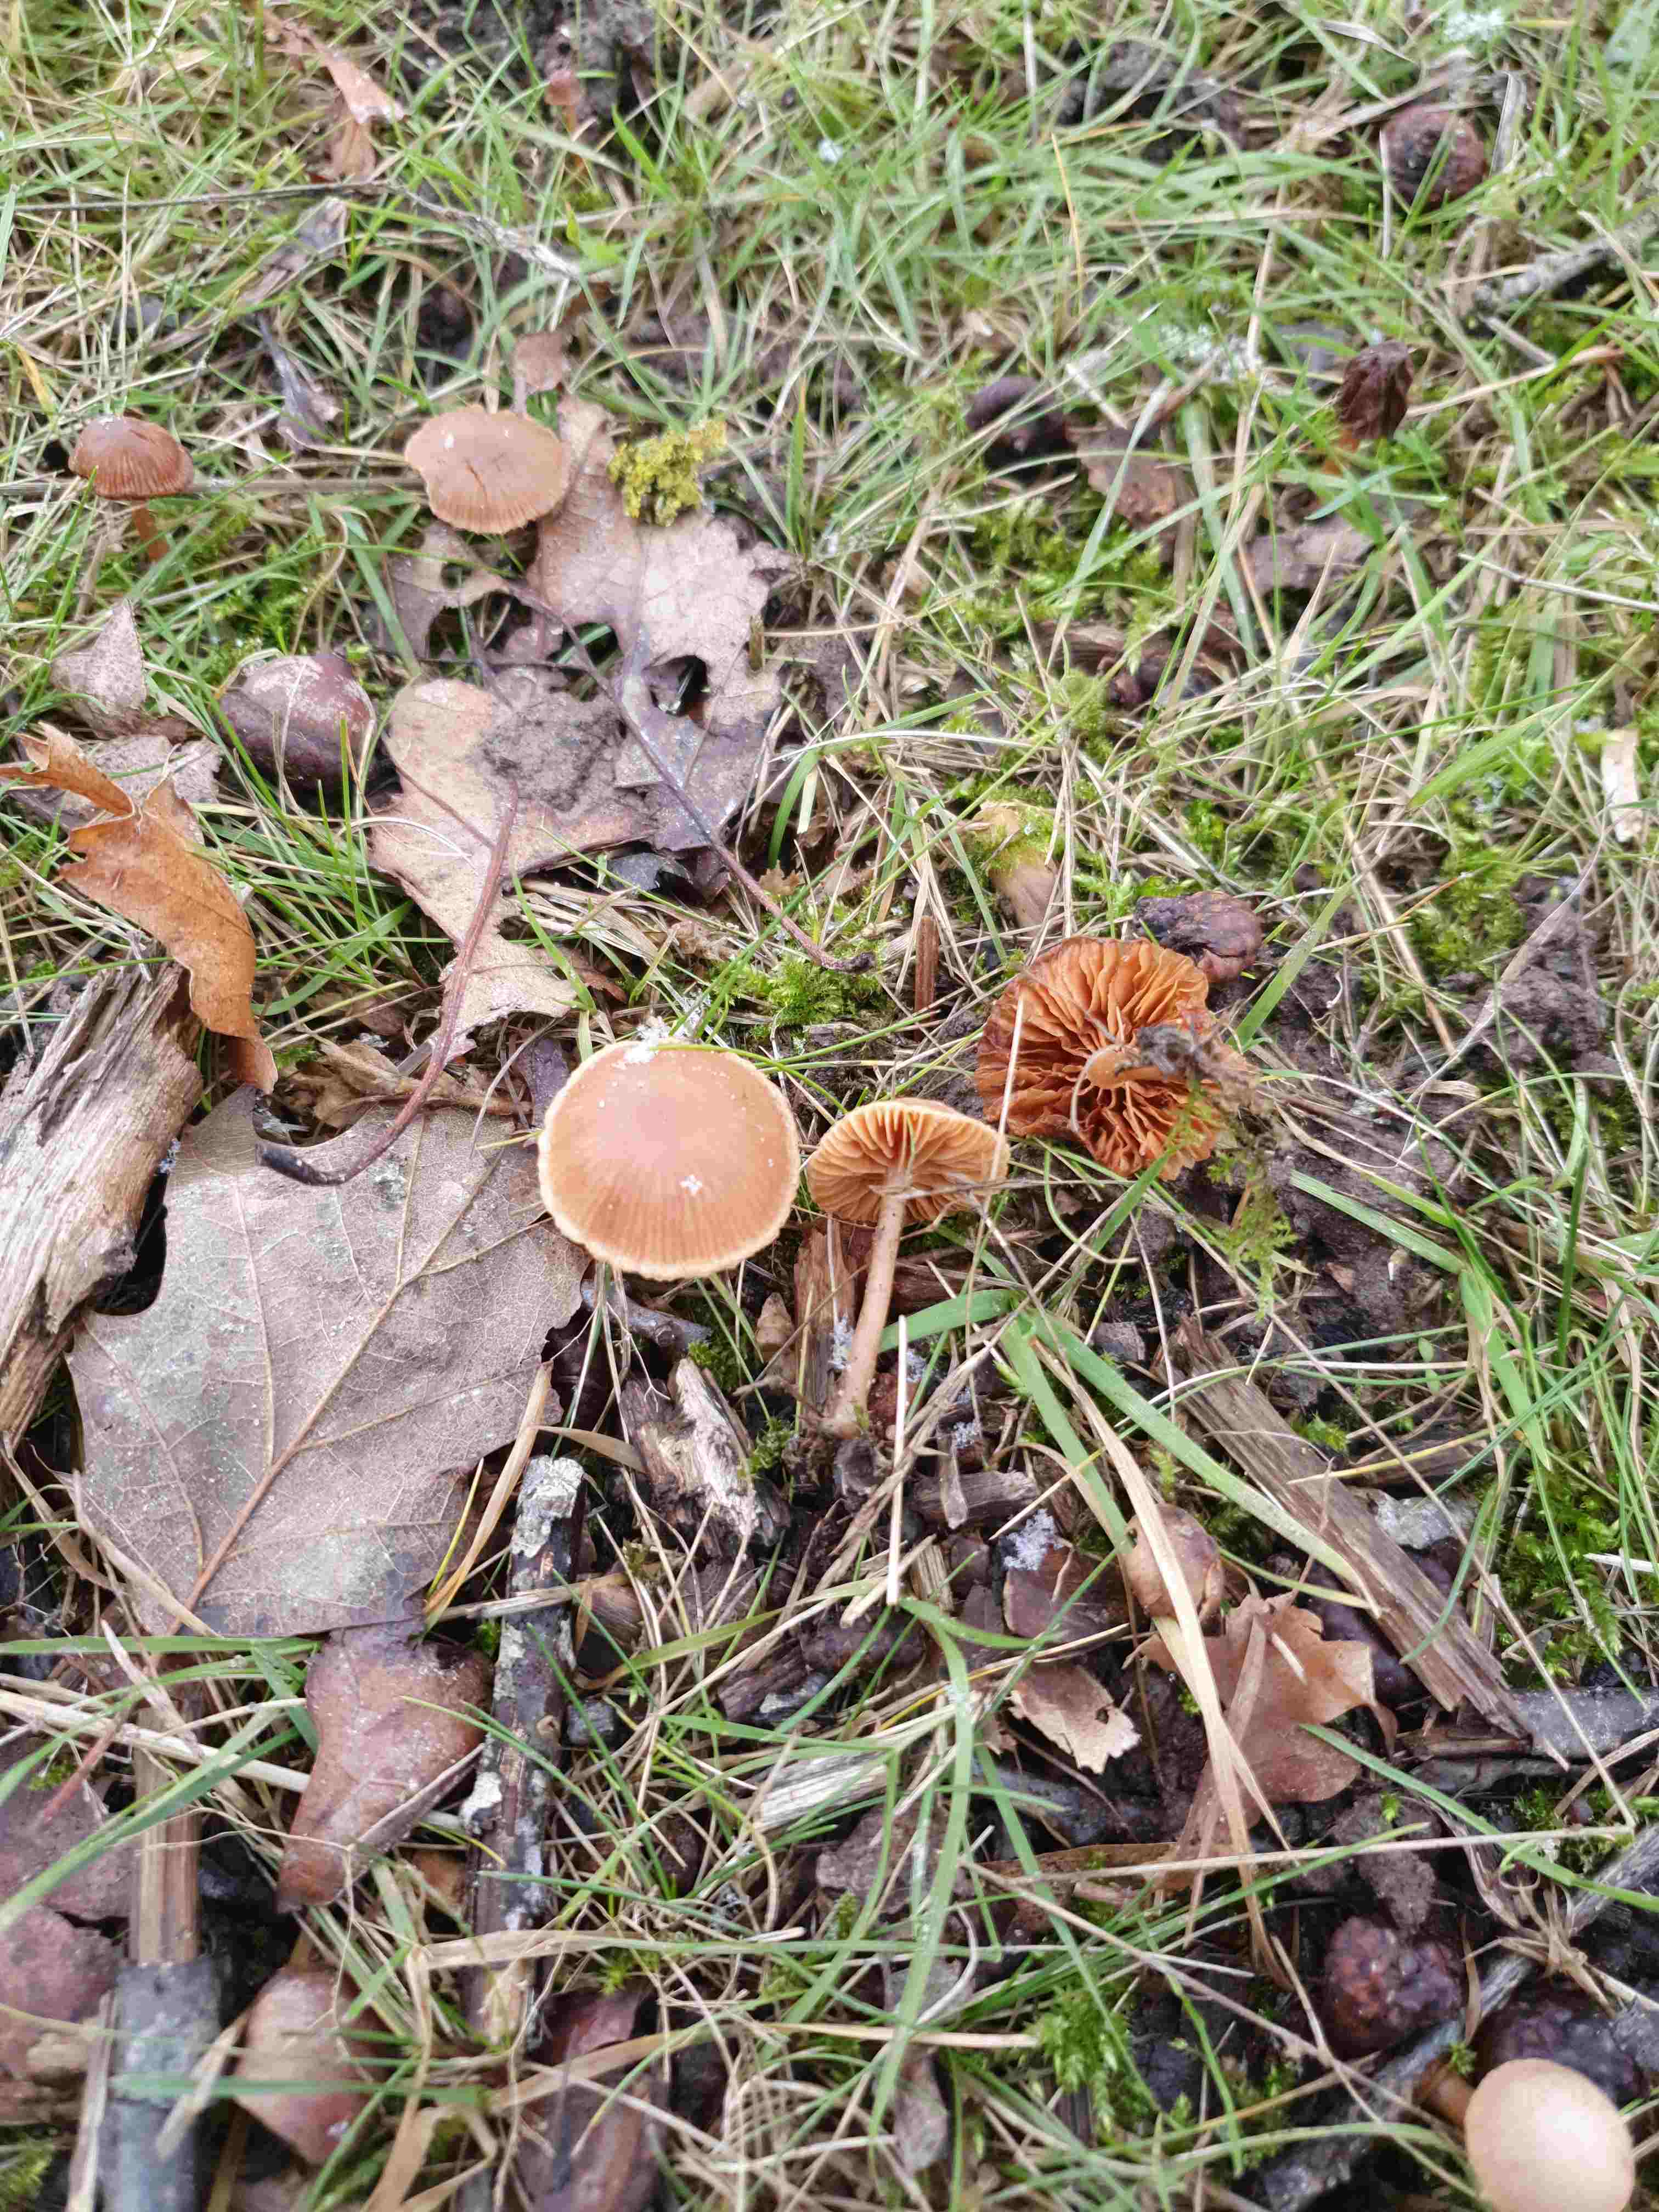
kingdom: Fungi
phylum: Basidiomycota
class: Agaricomycetes
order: Agaricales
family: Tubariaceae
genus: Tubaria
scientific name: Tubaria furfuracea
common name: kliddet fnughat
